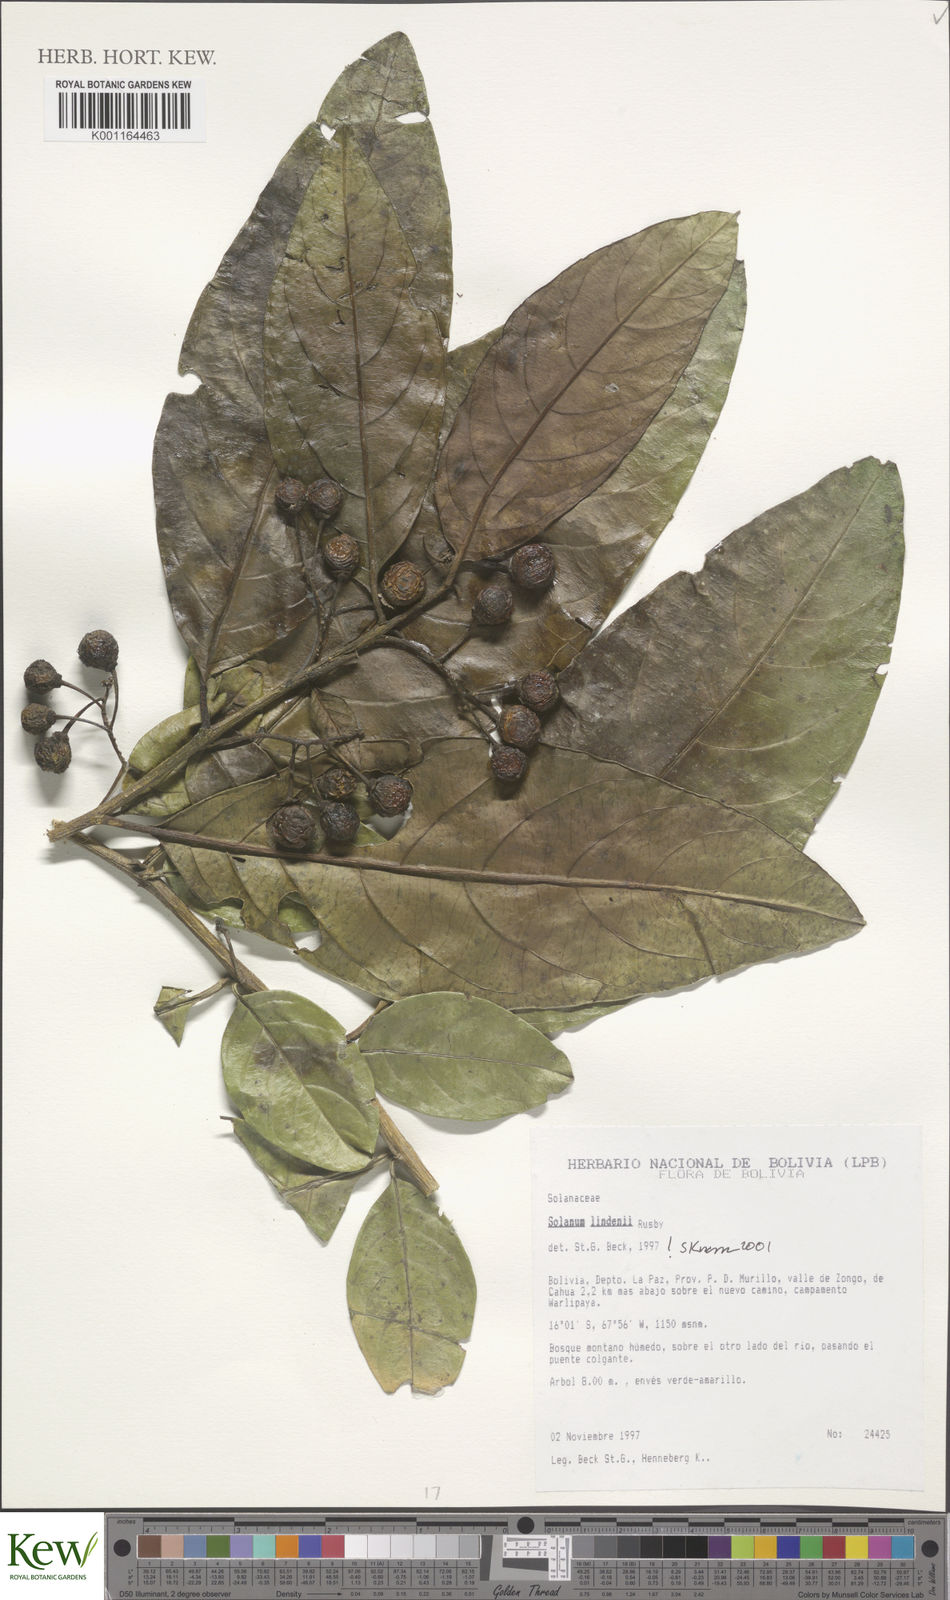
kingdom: Plantae
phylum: Tracheophyta
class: Magnoliopsida
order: Solanales
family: Solanaceae
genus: Solanum
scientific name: Solanum lindenii
